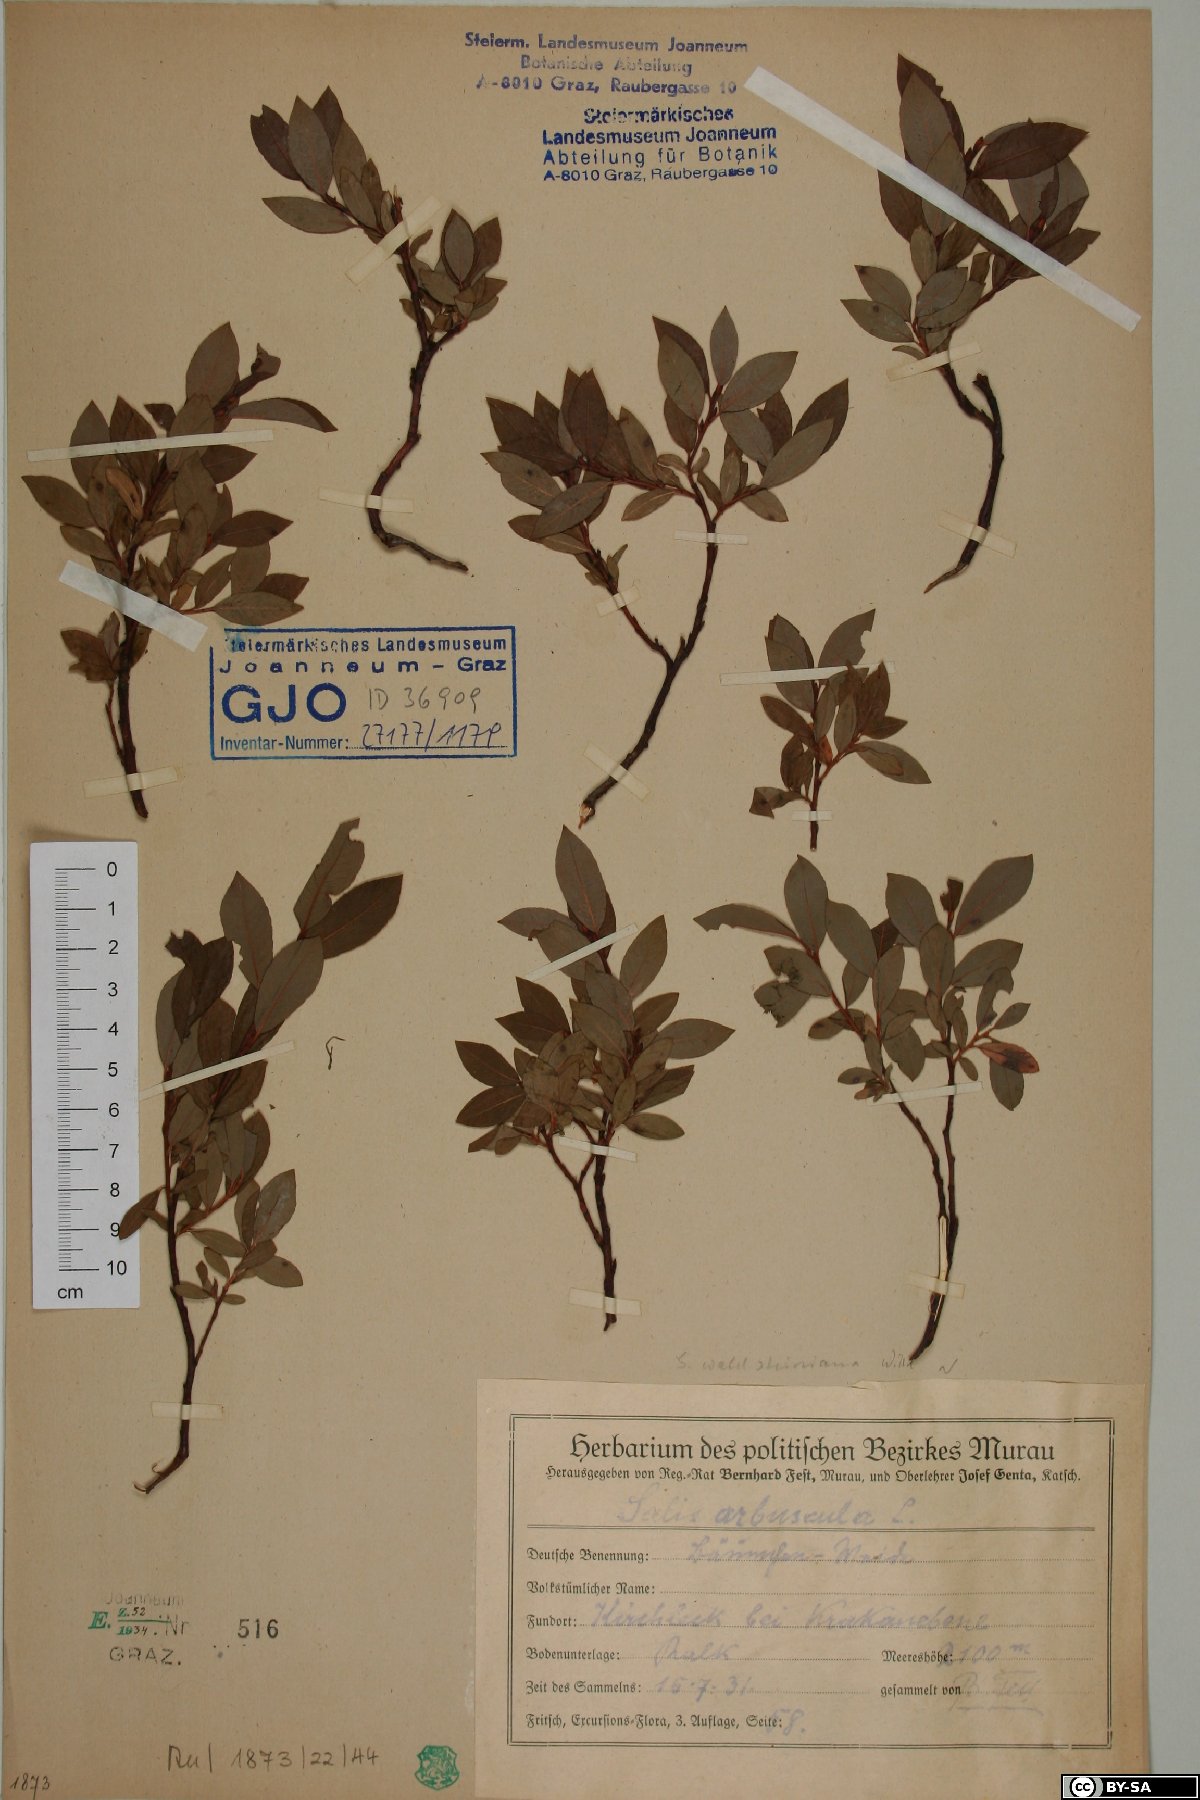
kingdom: Plantae
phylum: Tracheophyta
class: Magnoliopsida
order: Malpighiales
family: Salicaceae
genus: Salix
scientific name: Salix waldsteiniana
